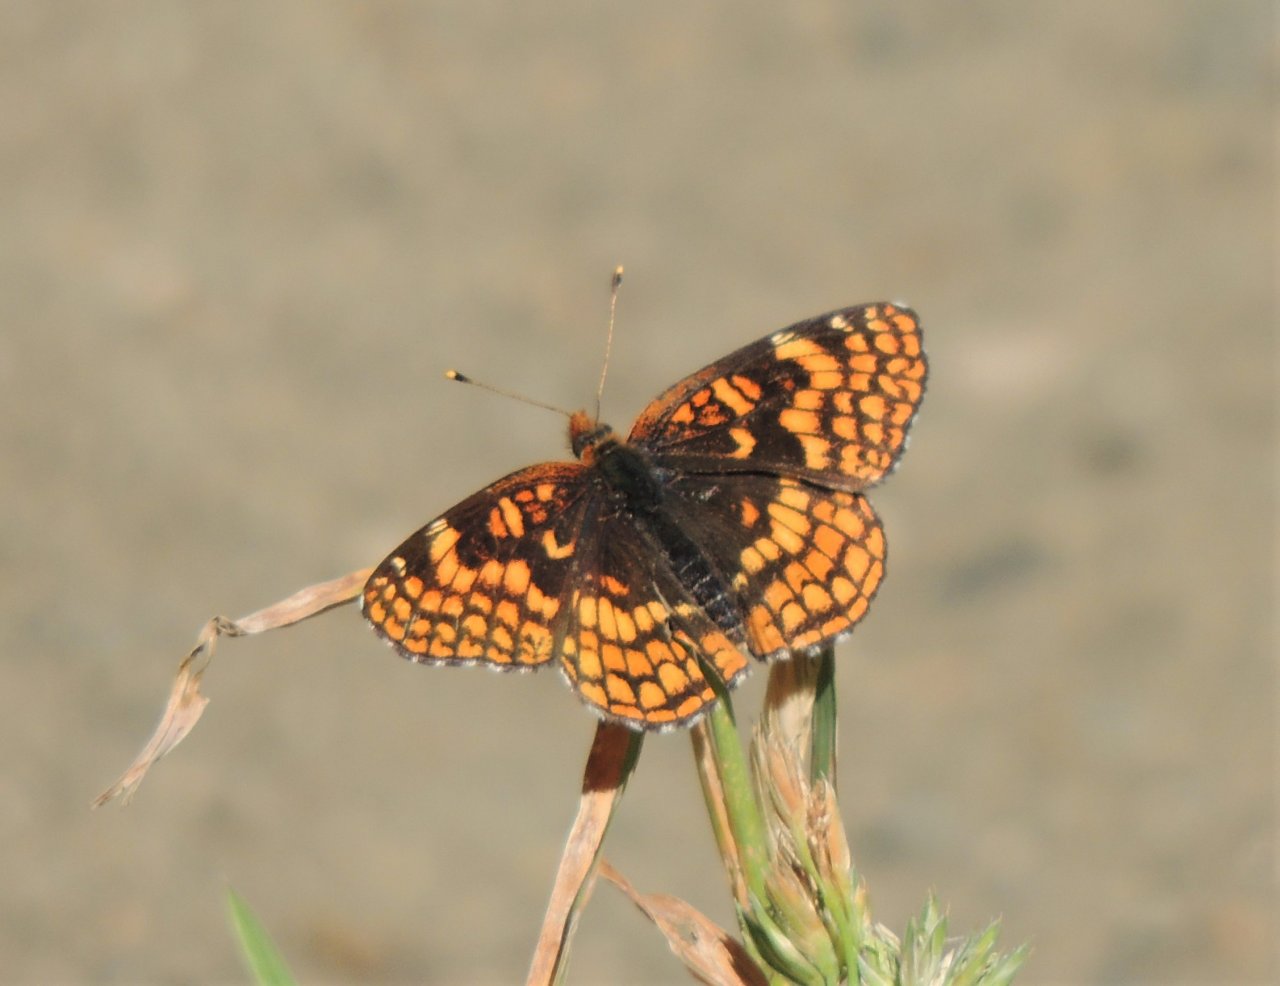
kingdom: Animalia
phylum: Arthropoda
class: Insecta
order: Lepidoptera
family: Nymphalidae
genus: Chlosyne
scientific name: Chlosyne palla
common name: Northern Checkerspot
